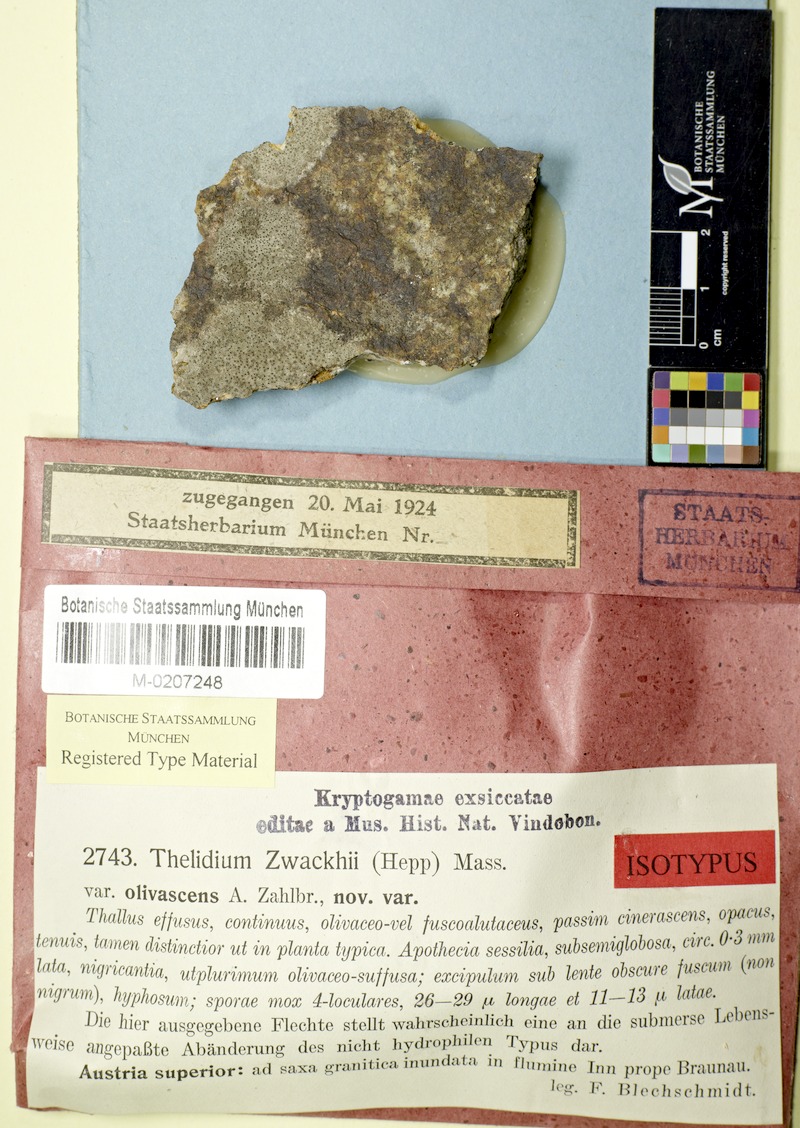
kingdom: Fungi
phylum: Ascomycota
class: Eurotiomycetes
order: Verrucariales
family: Verrucariaceae
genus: Thelidium
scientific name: Thelidium zwackhii
